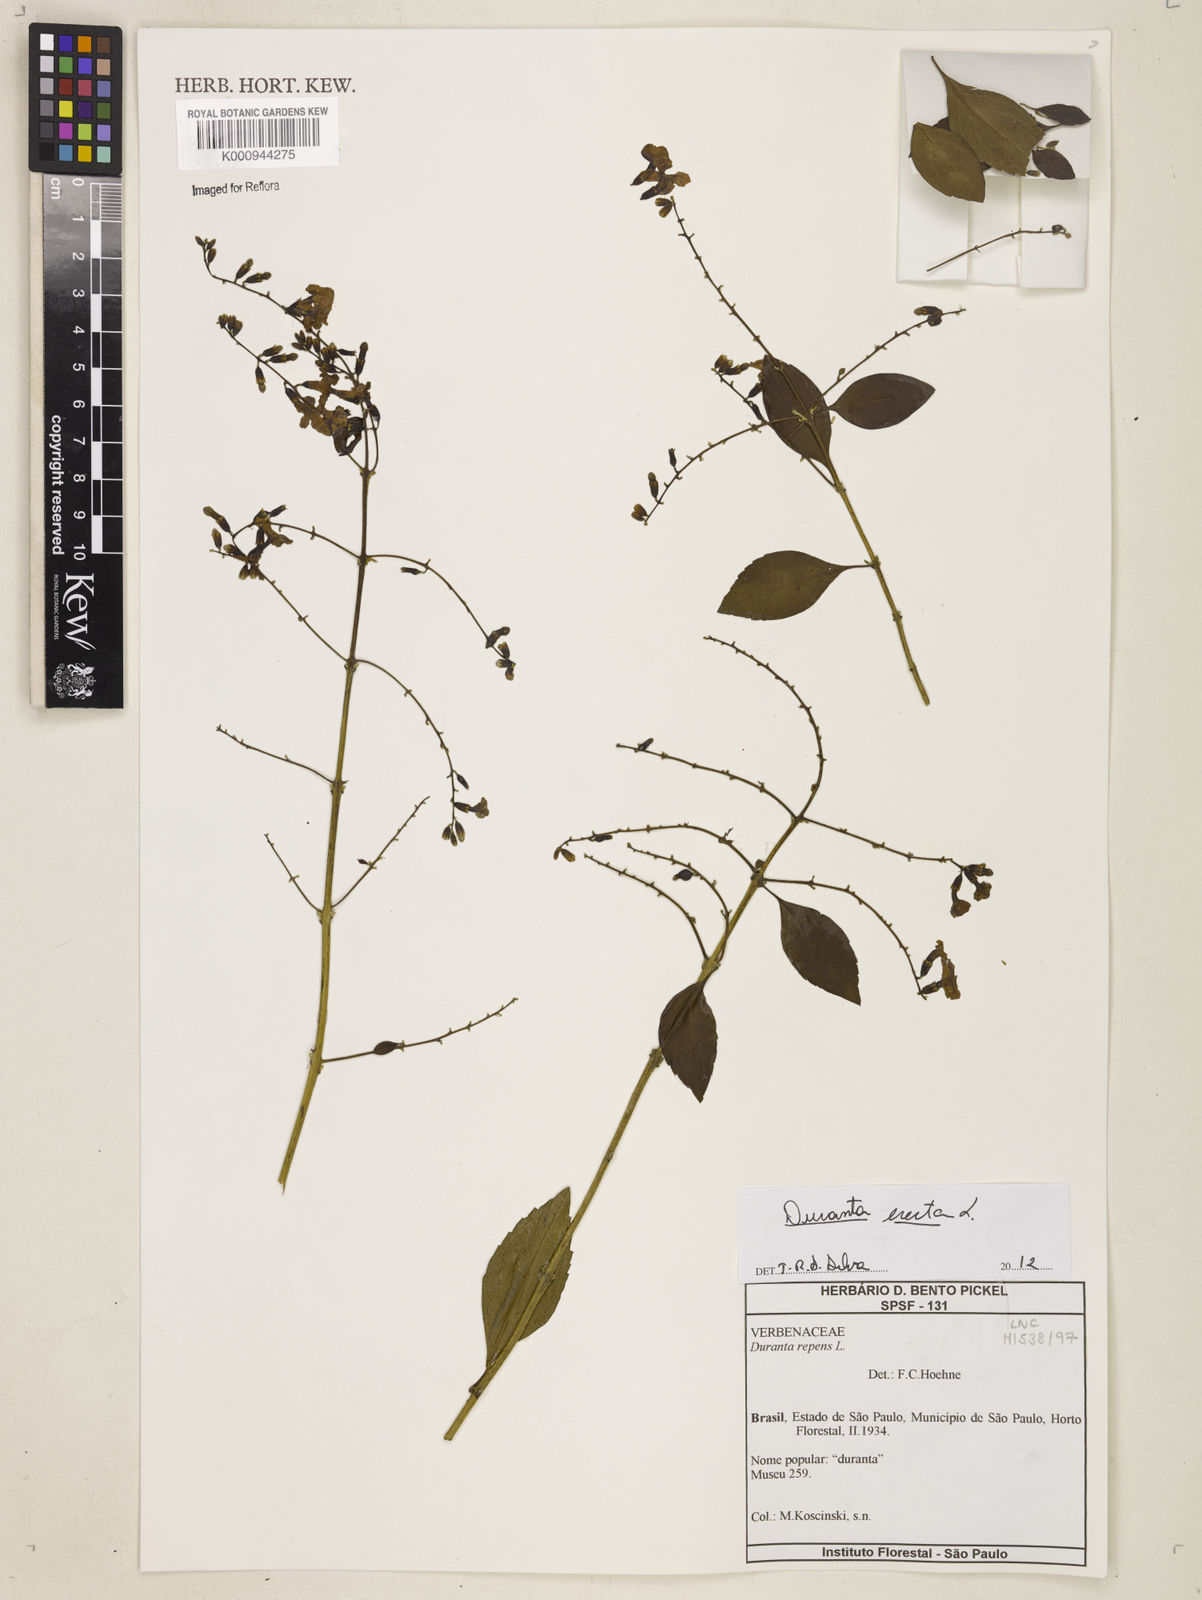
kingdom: Plantae
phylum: Tracheophyta
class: Magnoliopsida
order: Lamiales
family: Verbenaceae
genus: Citharexylum
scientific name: Citharexylum caudatum
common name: Fiddlewood
